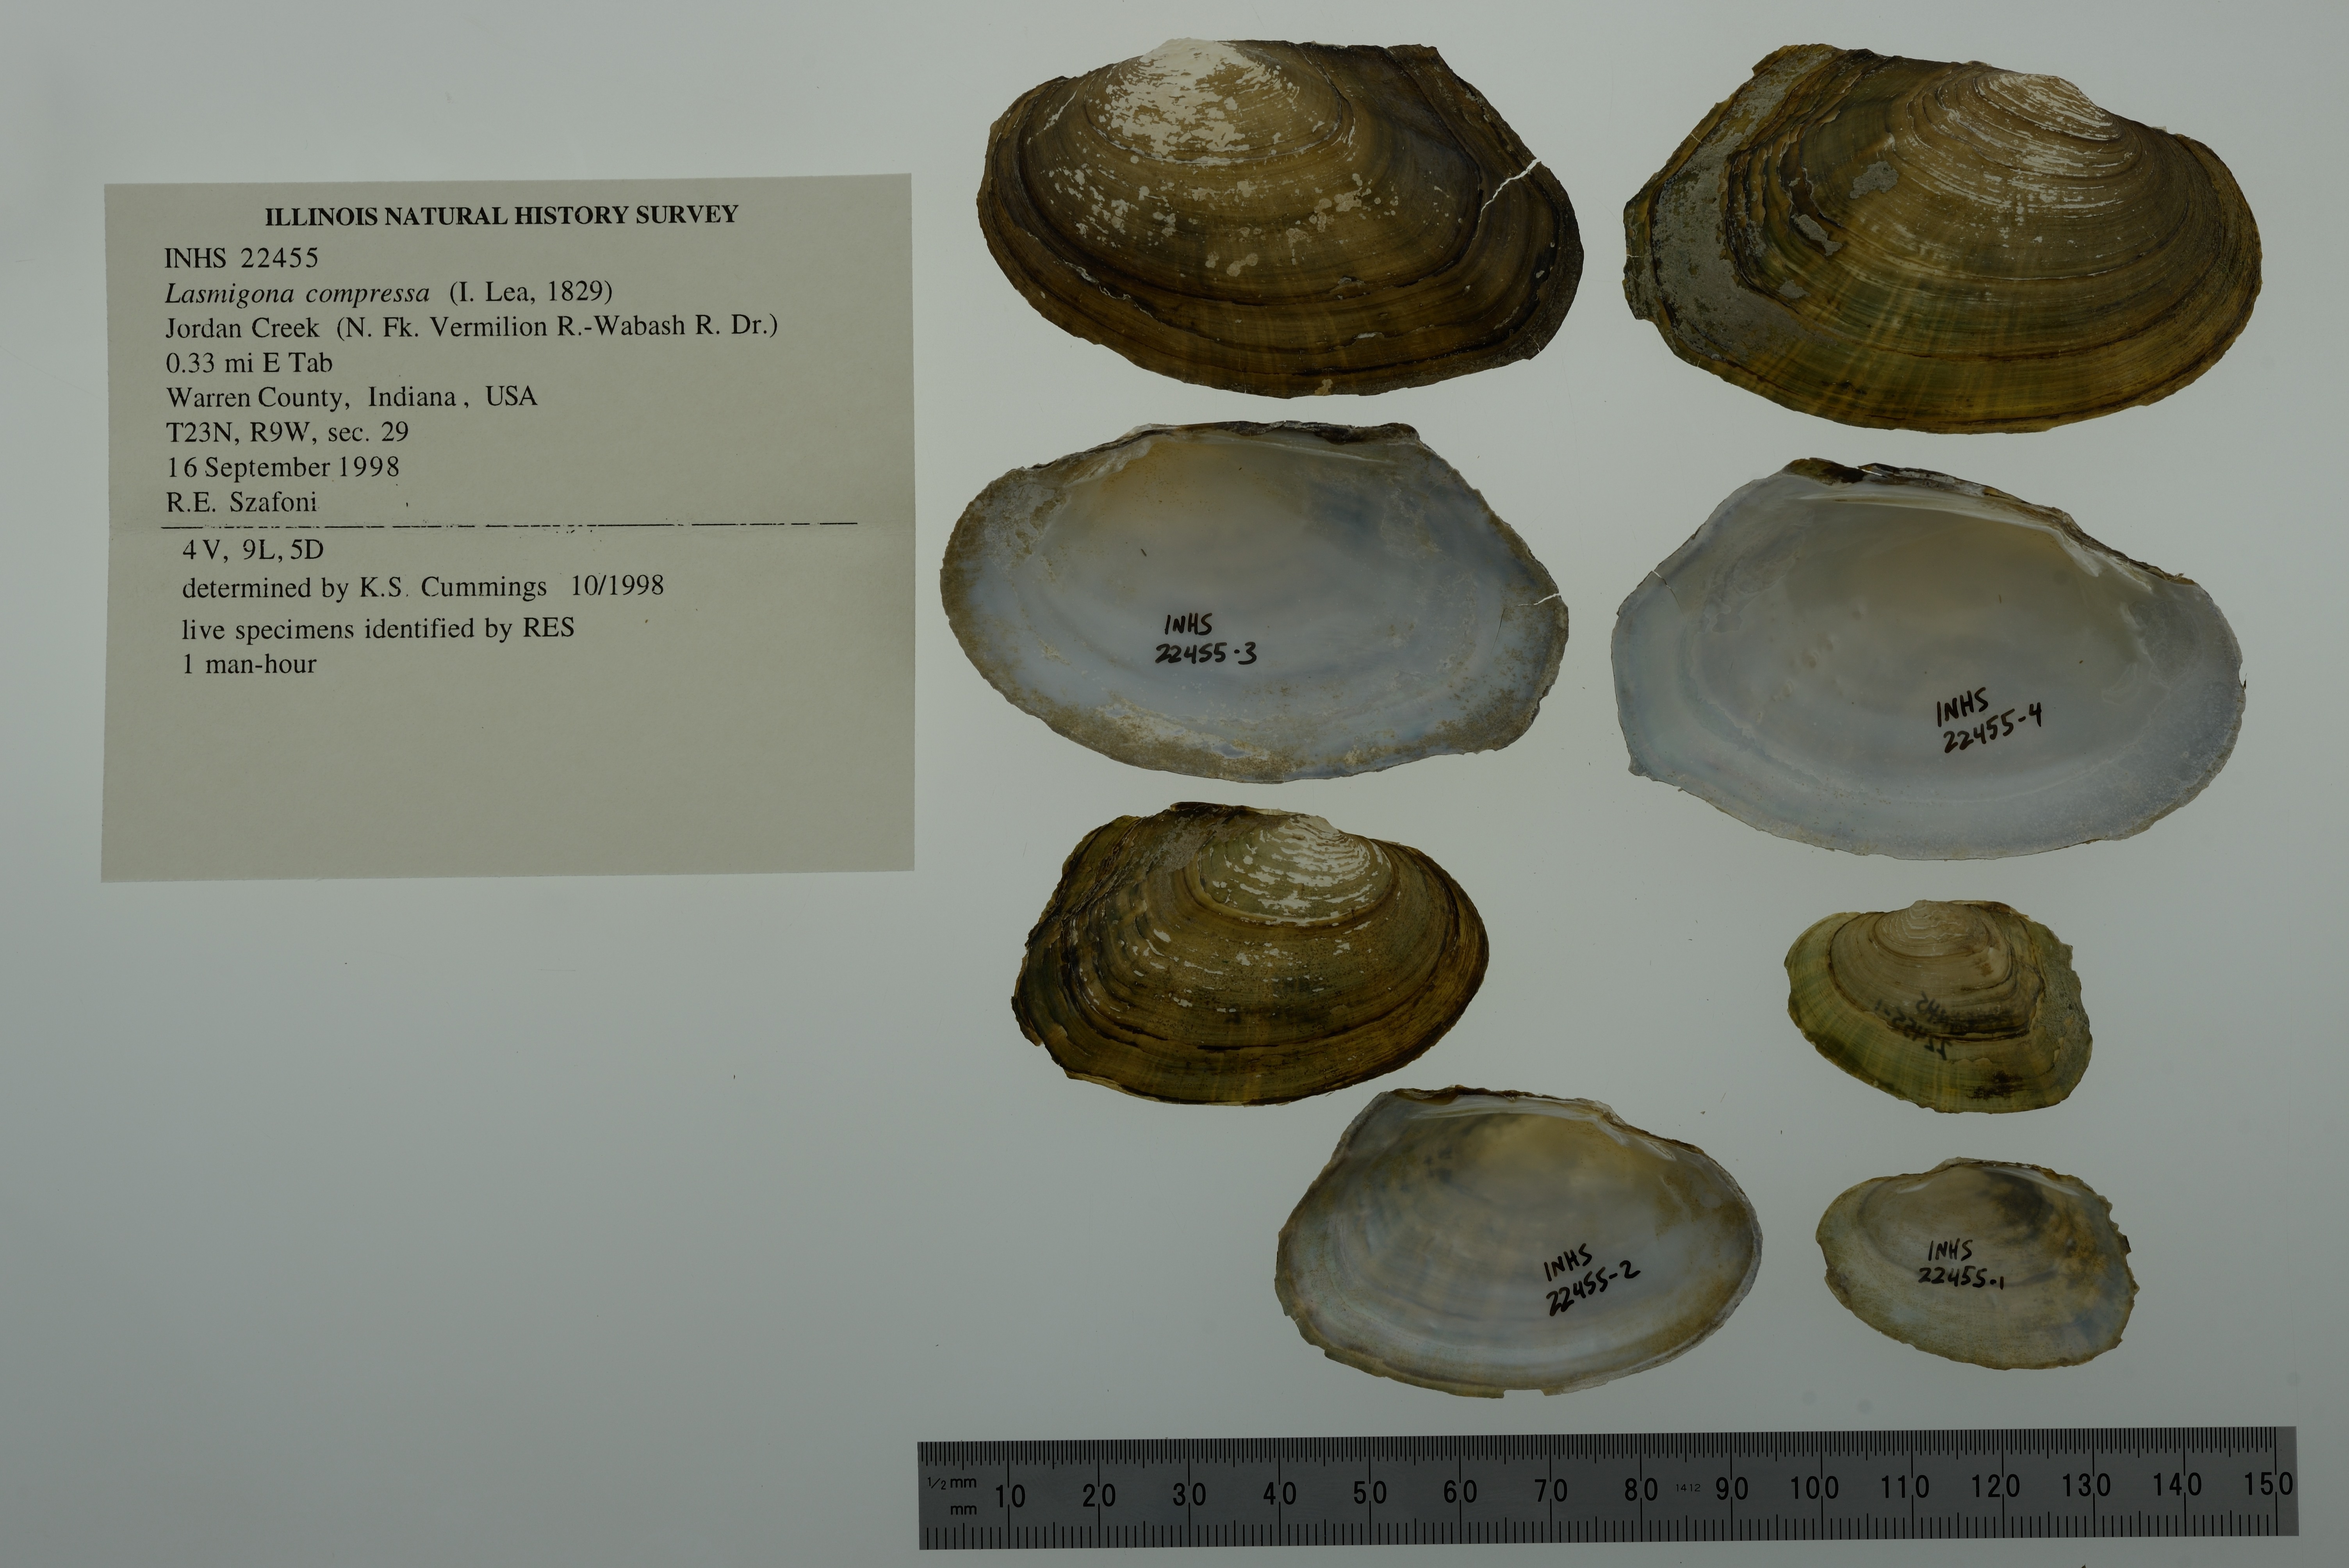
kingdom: Animalia
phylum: Mollusca
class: Bivalvia
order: Unionida
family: Unionidae
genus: Lasmigona
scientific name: Lasmigona compressa
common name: Creek heelsplitter
